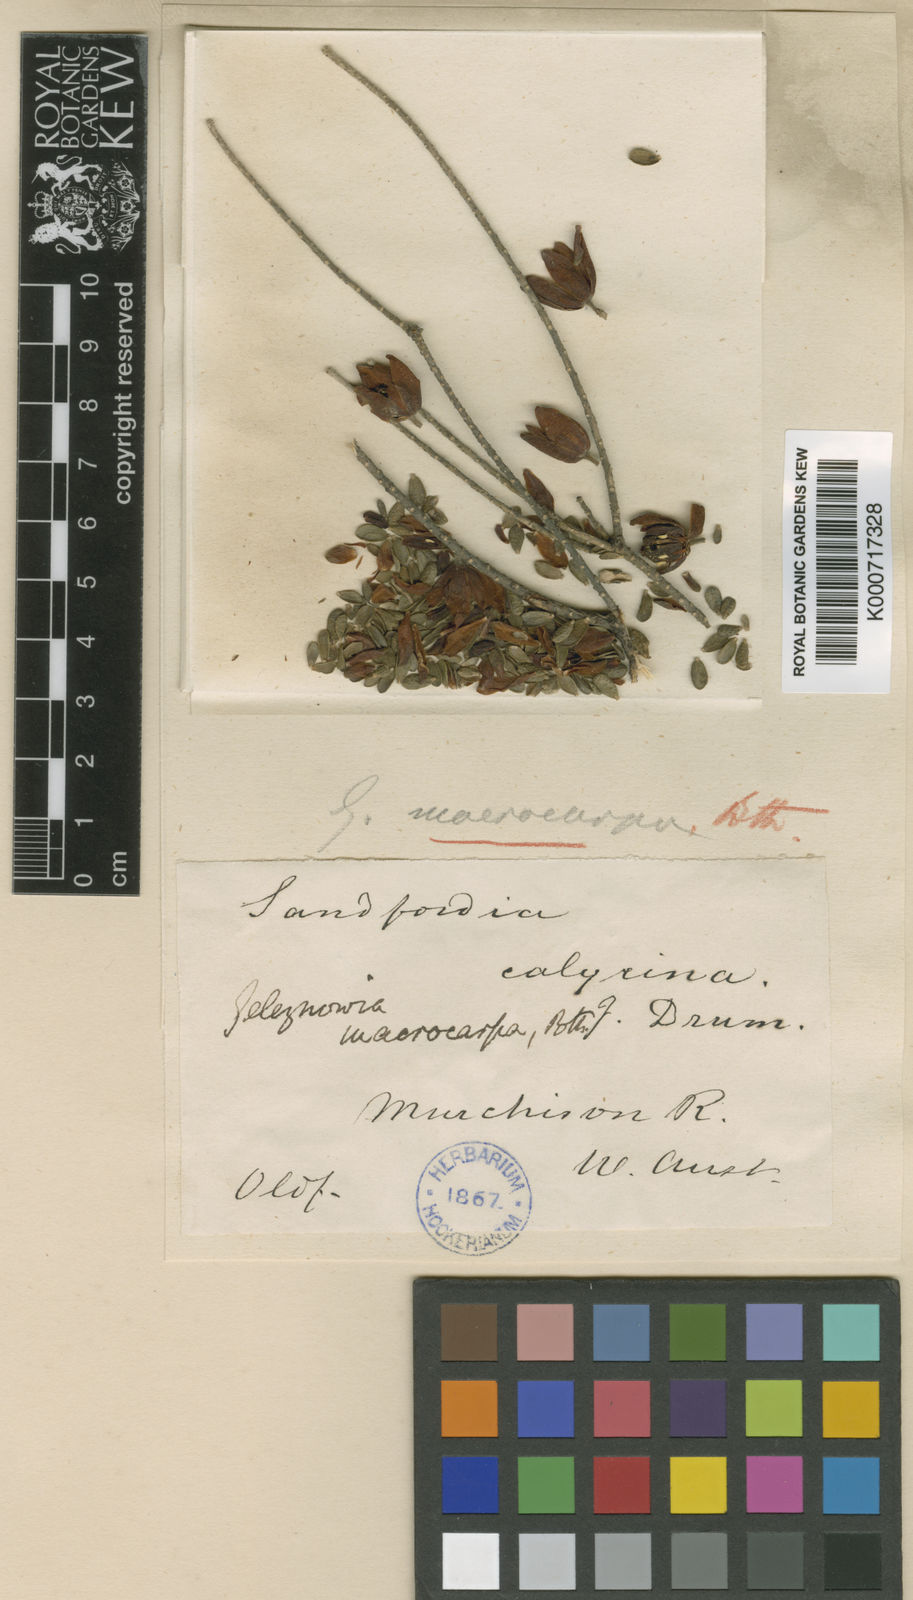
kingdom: Plantae
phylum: Tracheophyta
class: Magnoliopsida
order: Sapindales
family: Rutaceae
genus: Geleznowia
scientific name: Geleznowia verrucosa
